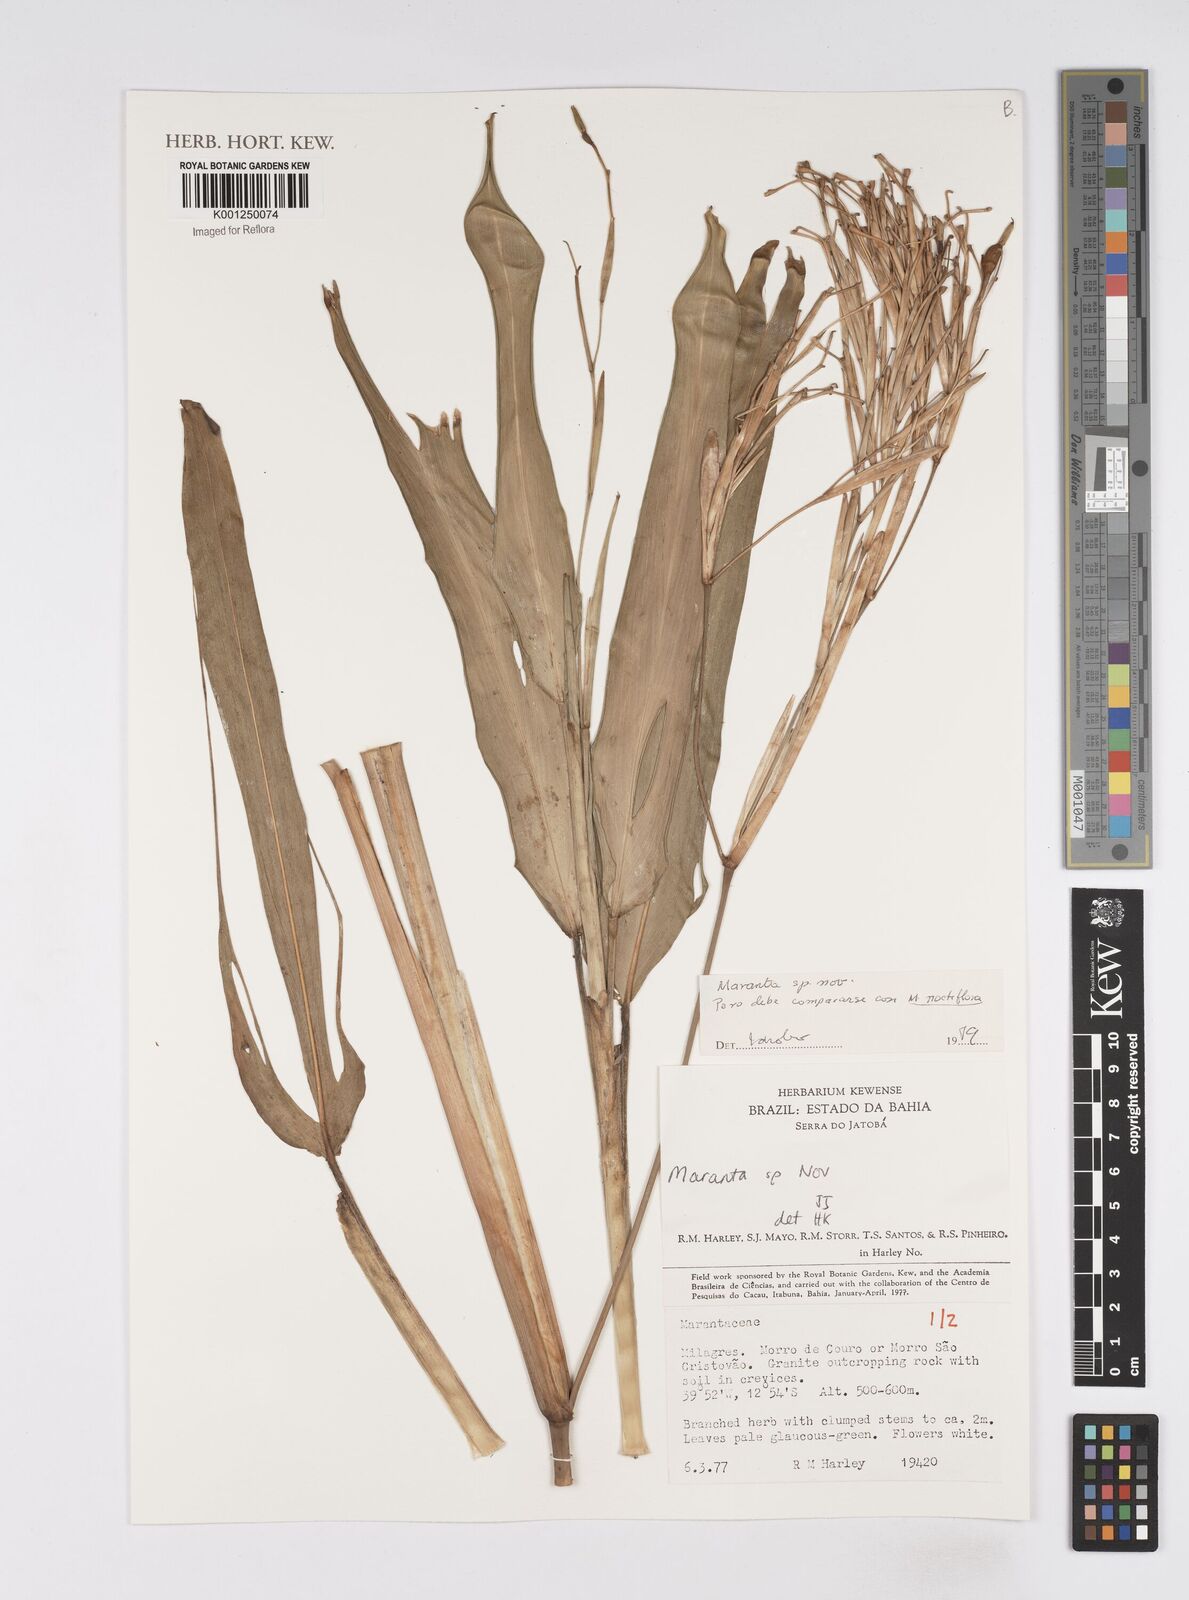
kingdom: Plantae
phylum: Tracheophyta
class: Liliopsida
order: Zingiberales
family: Marantaceae
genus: Ctenanthe
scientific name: Ctenanthe glabra
